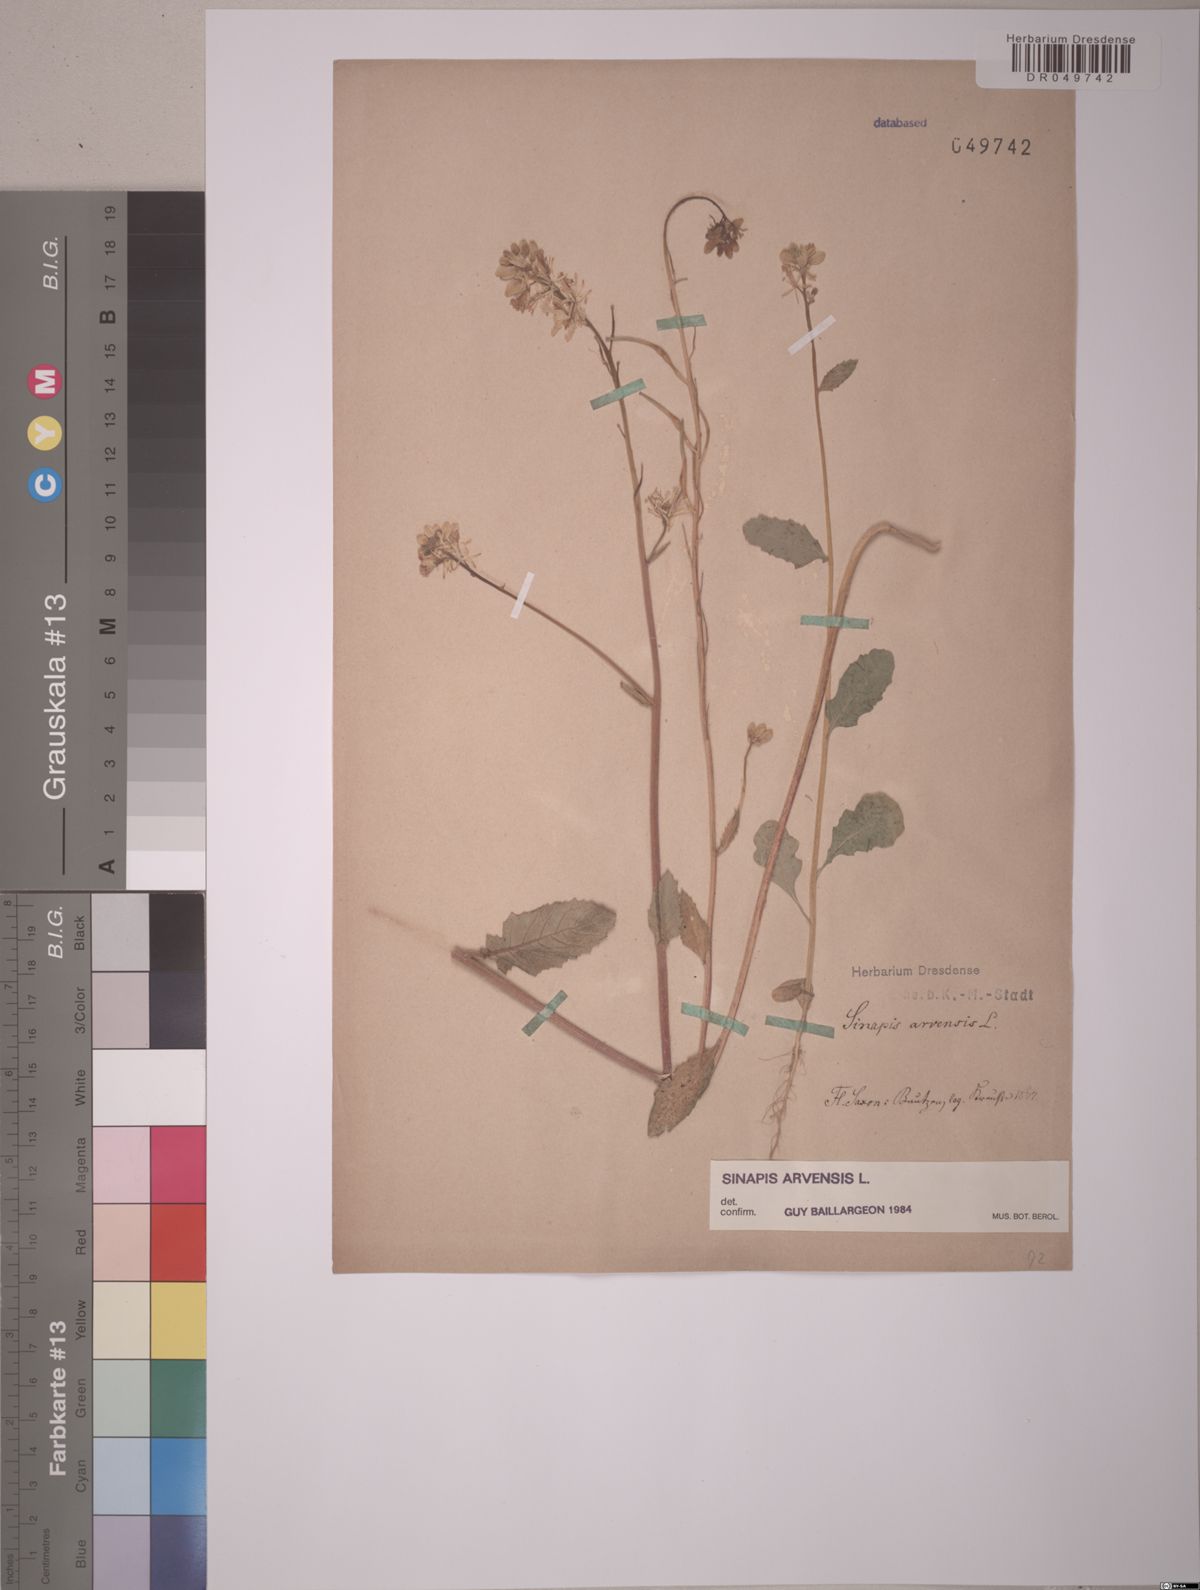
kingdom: Plantae
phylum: Tracheophyta
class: Magnoliopsida
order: Brassicales
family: Brassicaceae
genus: Sinapis
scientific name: Sinapis arvensis
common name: Charlock
